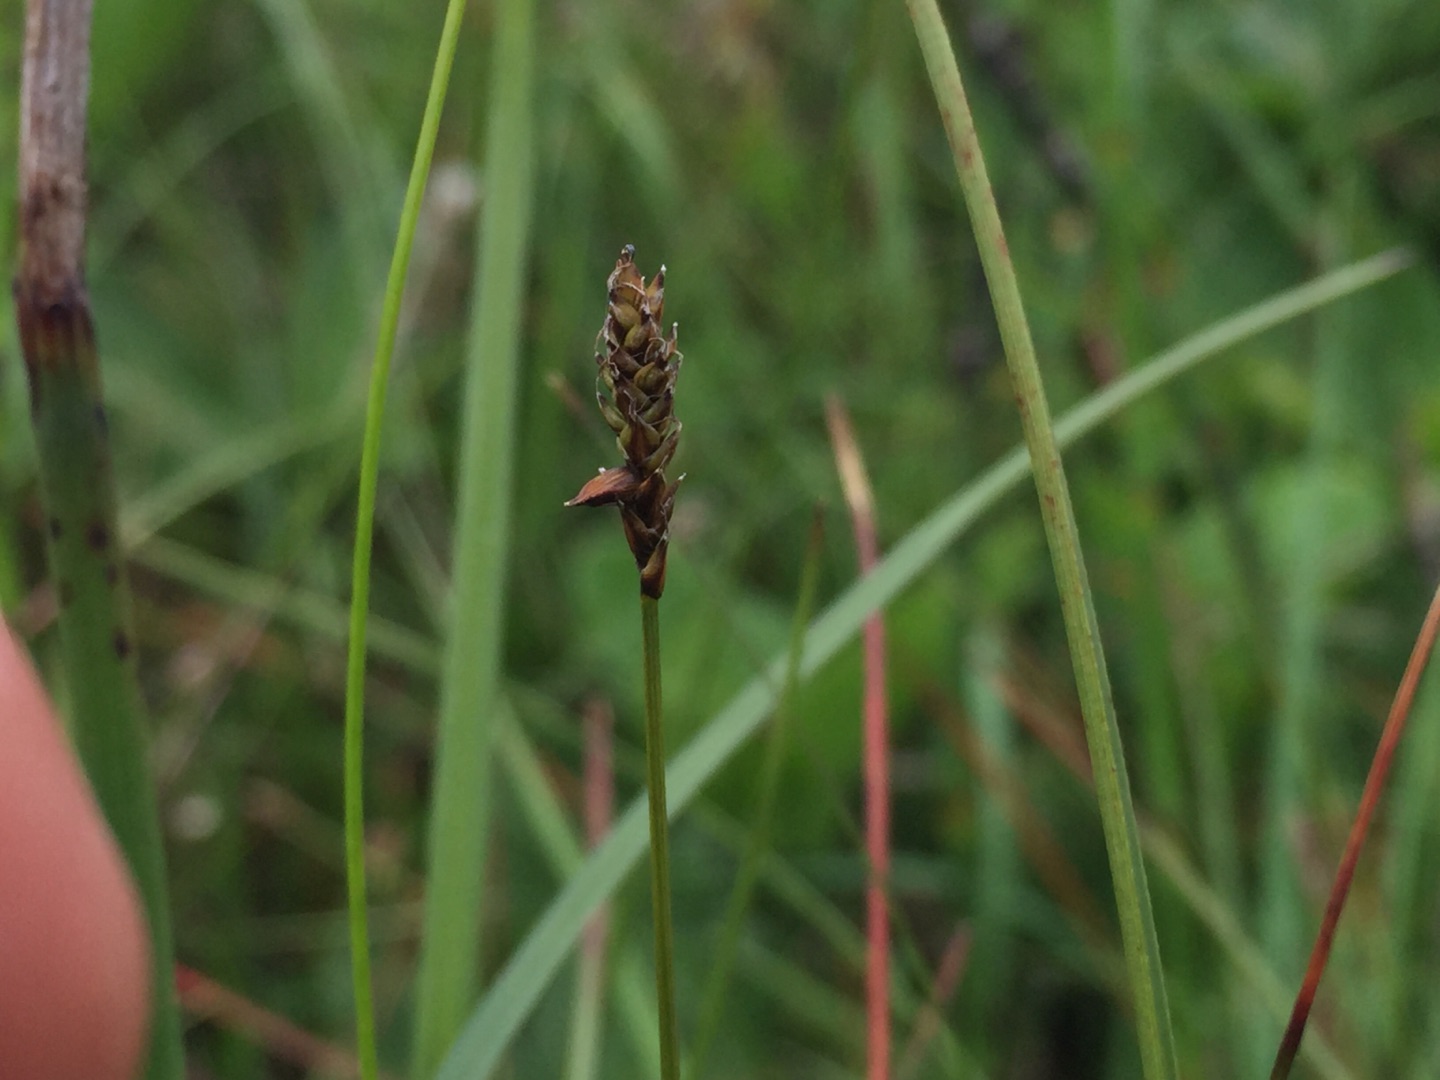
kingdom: Plantae
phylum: Tracheophyta
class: Liliopsida
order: Poales
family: Cyperaceae
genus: Carex
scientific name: Carex dioica
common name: Tvebo star
